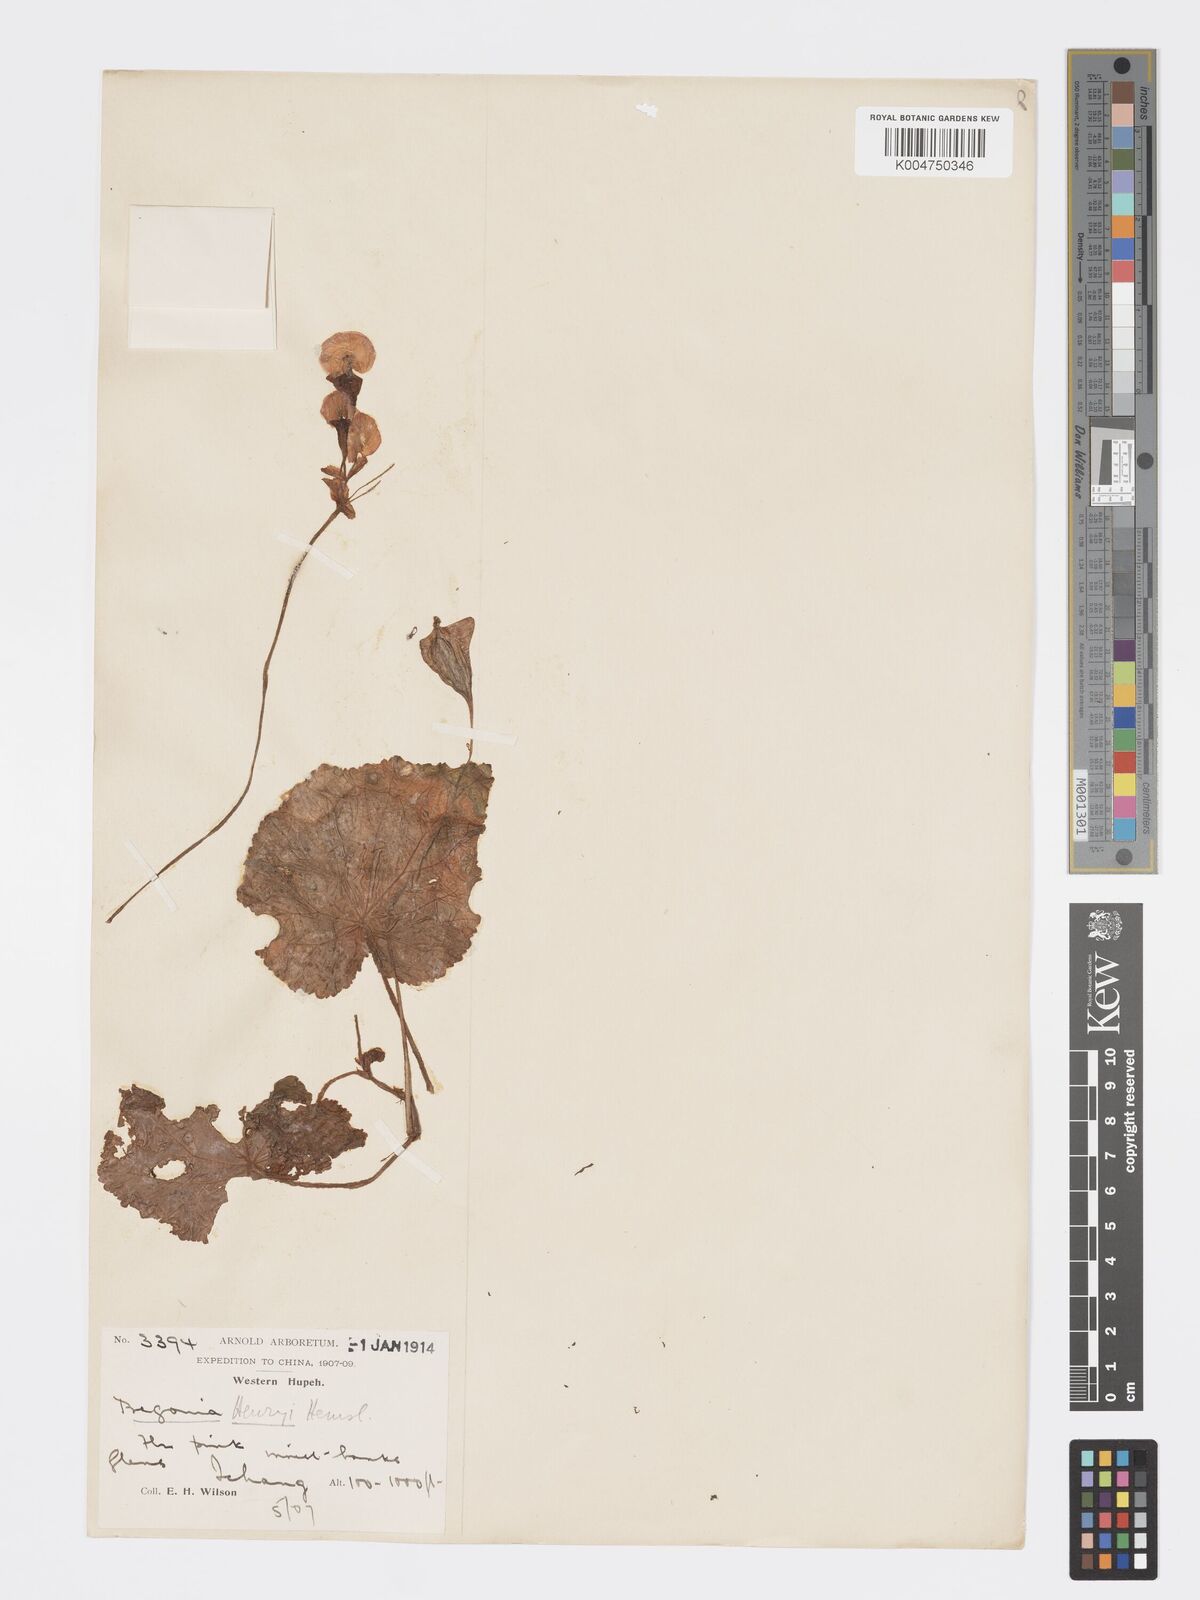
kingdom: Plantae
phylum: Tracheophyta
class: Magnoliopsida
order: Cucurbitales
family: Begoniaceae
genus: Begonia
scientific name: Begonia henryi
